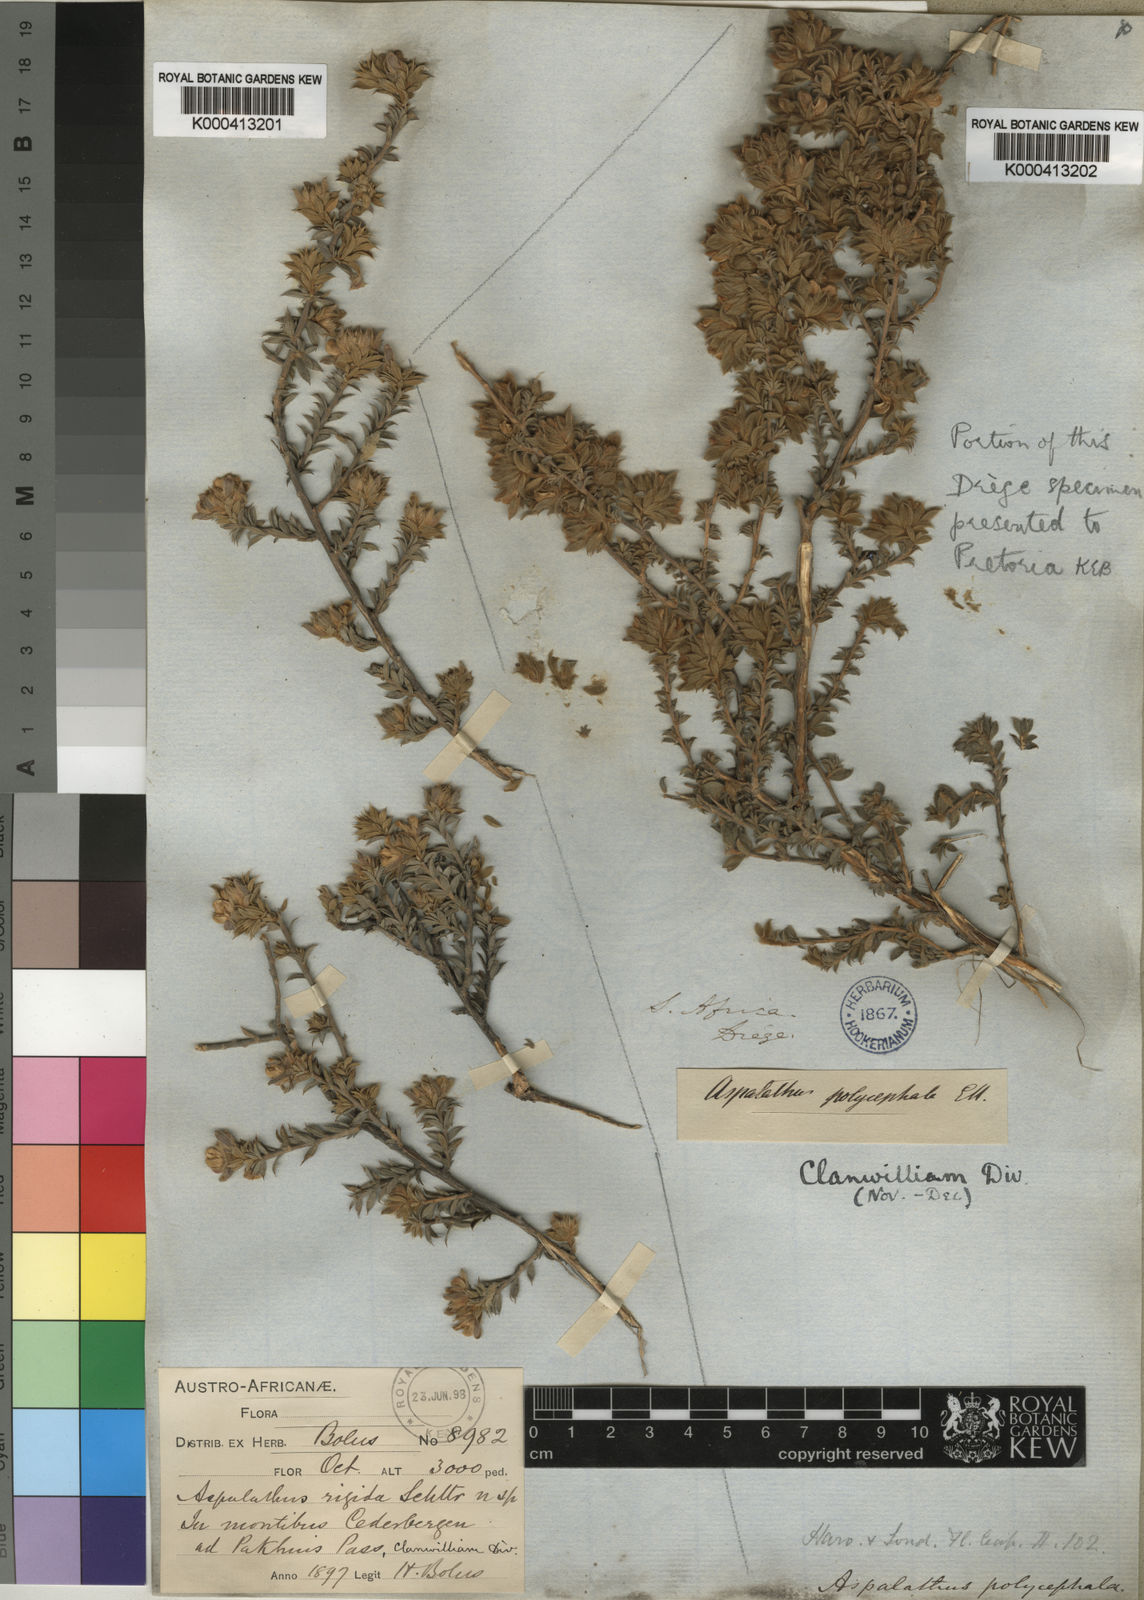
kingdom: Plantae
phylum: Tracheophyta
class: Magnoliopsida
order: Fabales
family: Fabaceae
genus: Aspalathus
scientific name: Aspalathus polycephala
